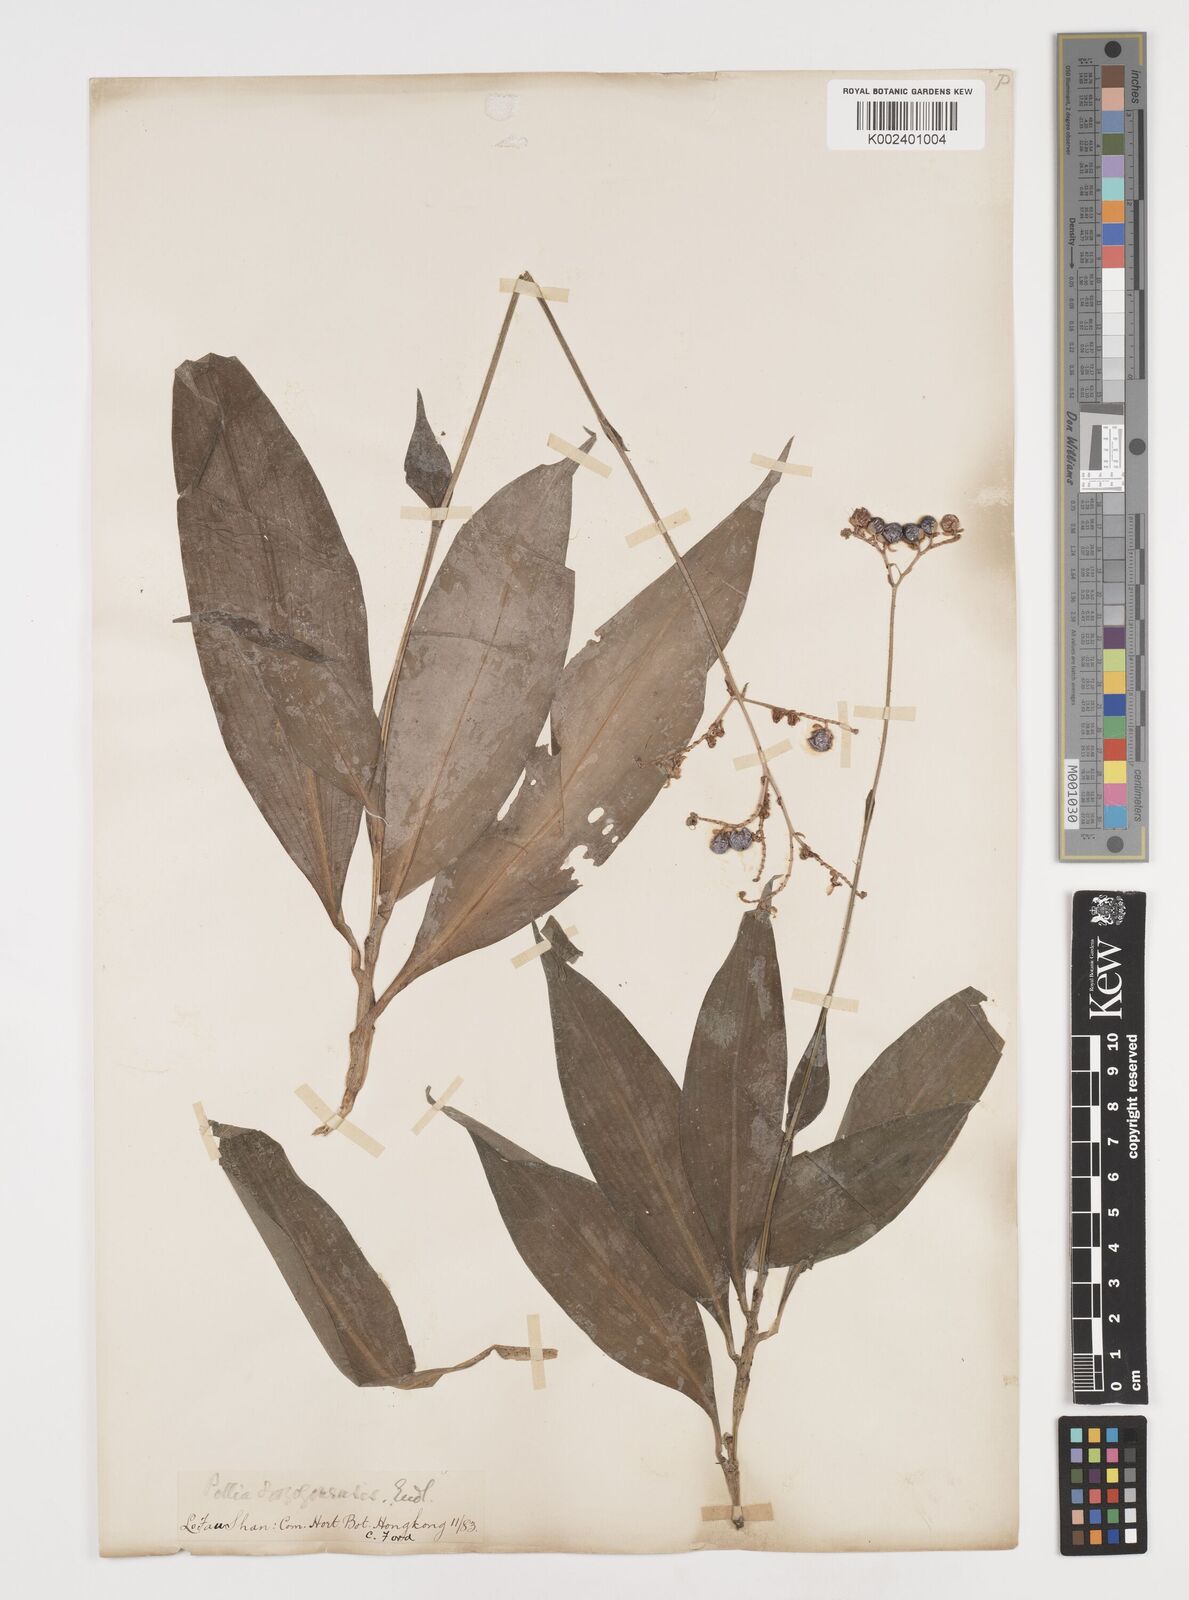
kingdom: Plantae
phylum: Tracheophyta
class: Liliopsida
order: Commelinales
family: Commelinaceae
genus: Pollia
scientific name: Pollia secundiflora
